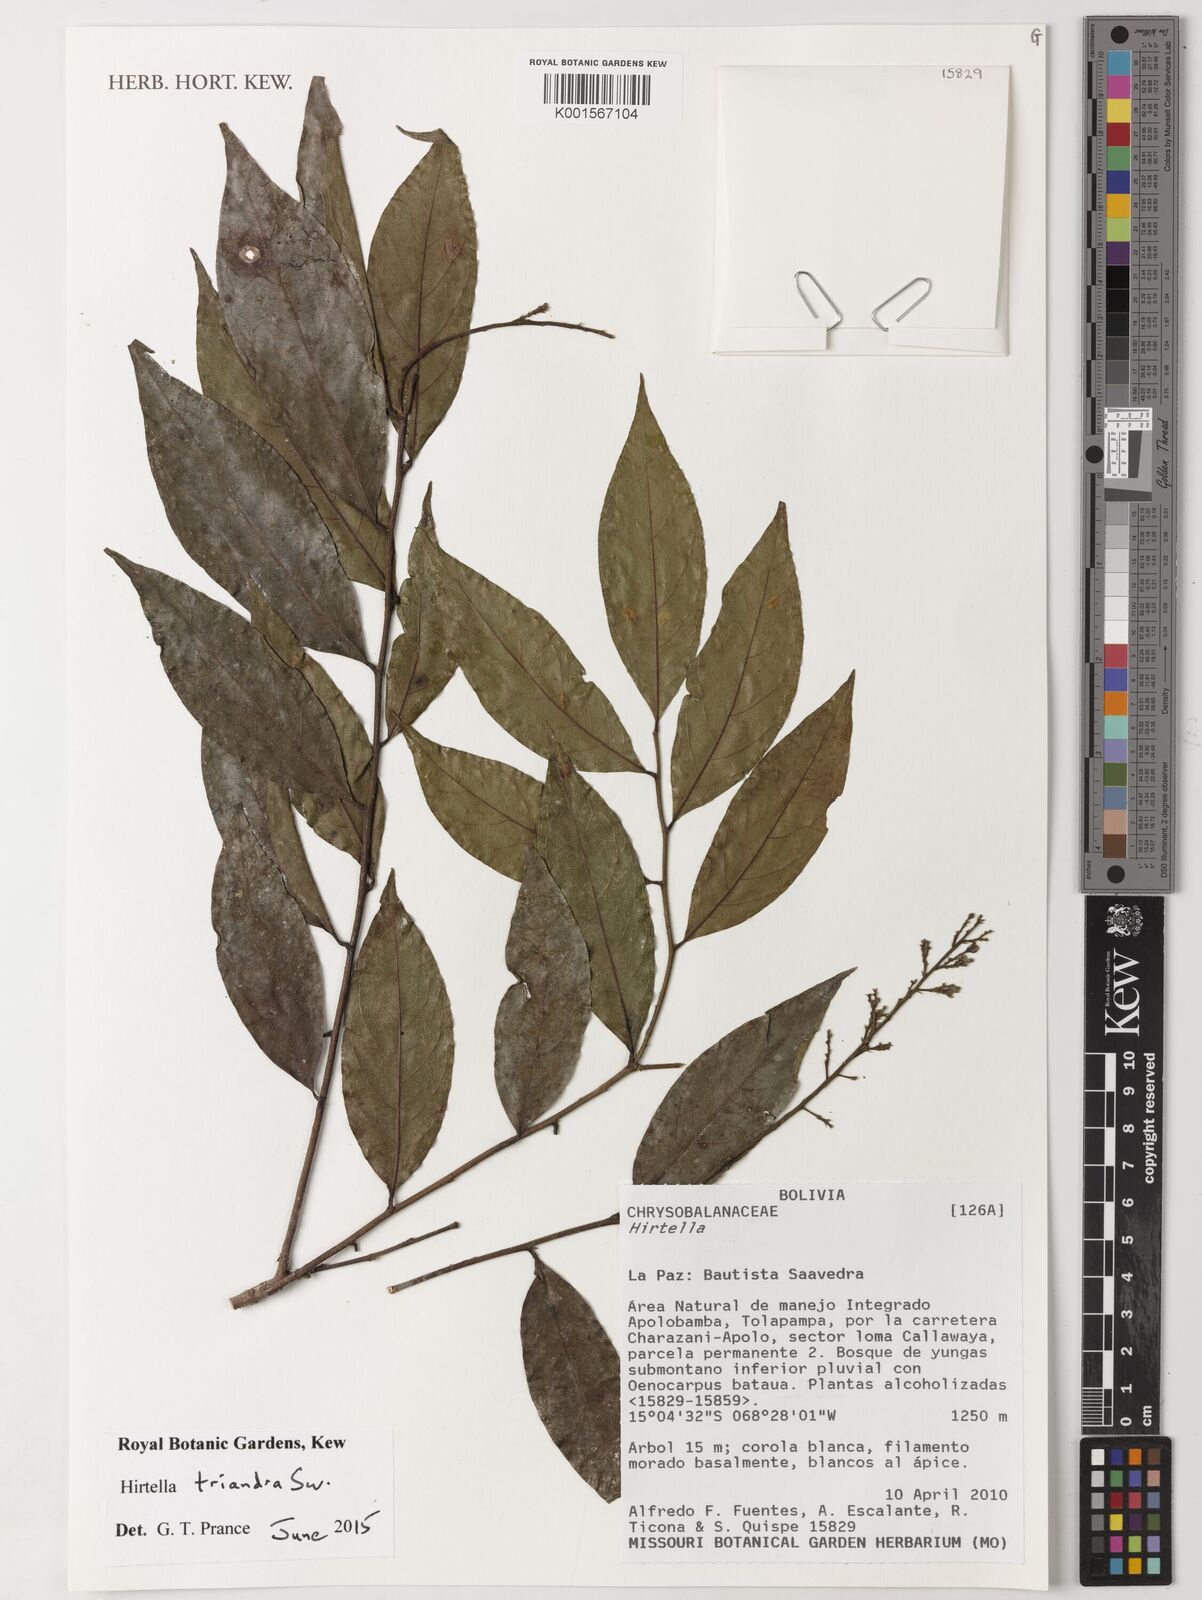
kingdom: Plantae
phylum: Tracheophyta
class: Magnoliopsida
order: Malpighiales
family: Chrysobalanaceae
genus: Hirtella
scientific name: Hirtella triandra
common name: Hairy plum
